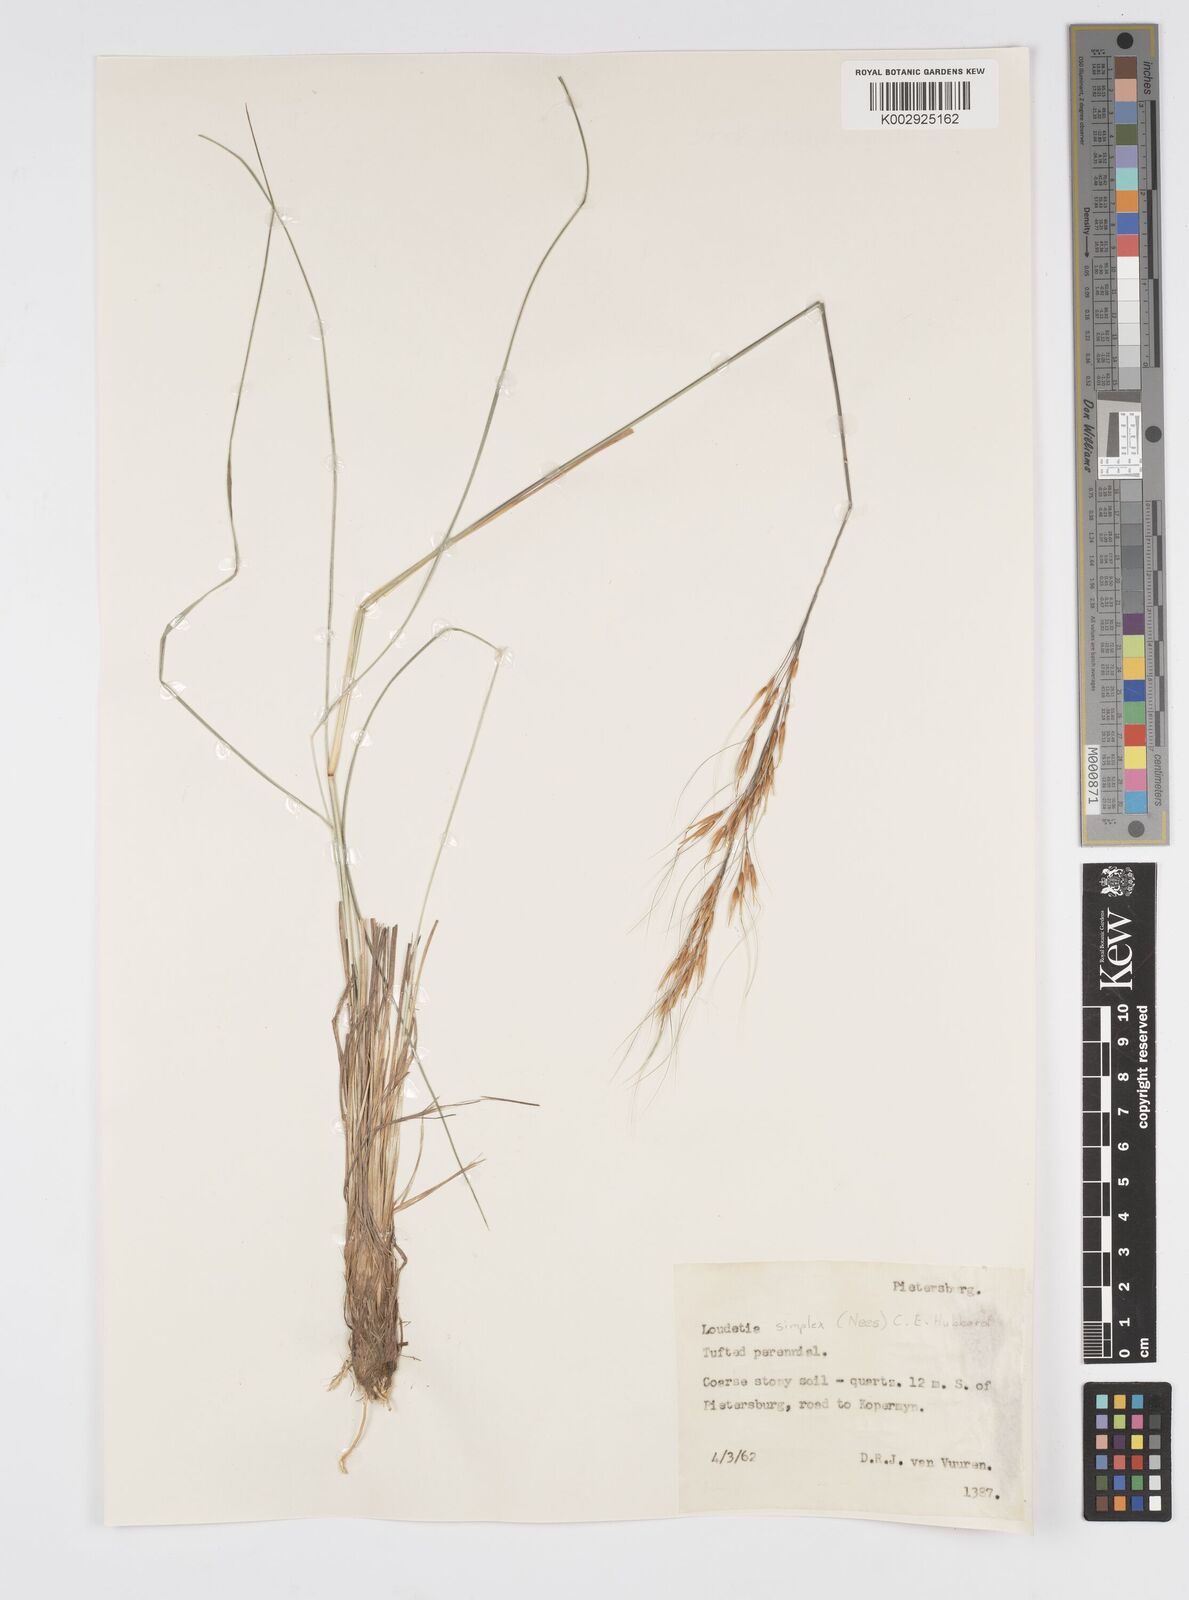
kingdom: Plantae
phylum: Tracheophyta
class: Liliopsida
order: Poales
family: Poaceae
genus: Loudetia
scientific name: Loudetia simplex
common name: Common russet grass
